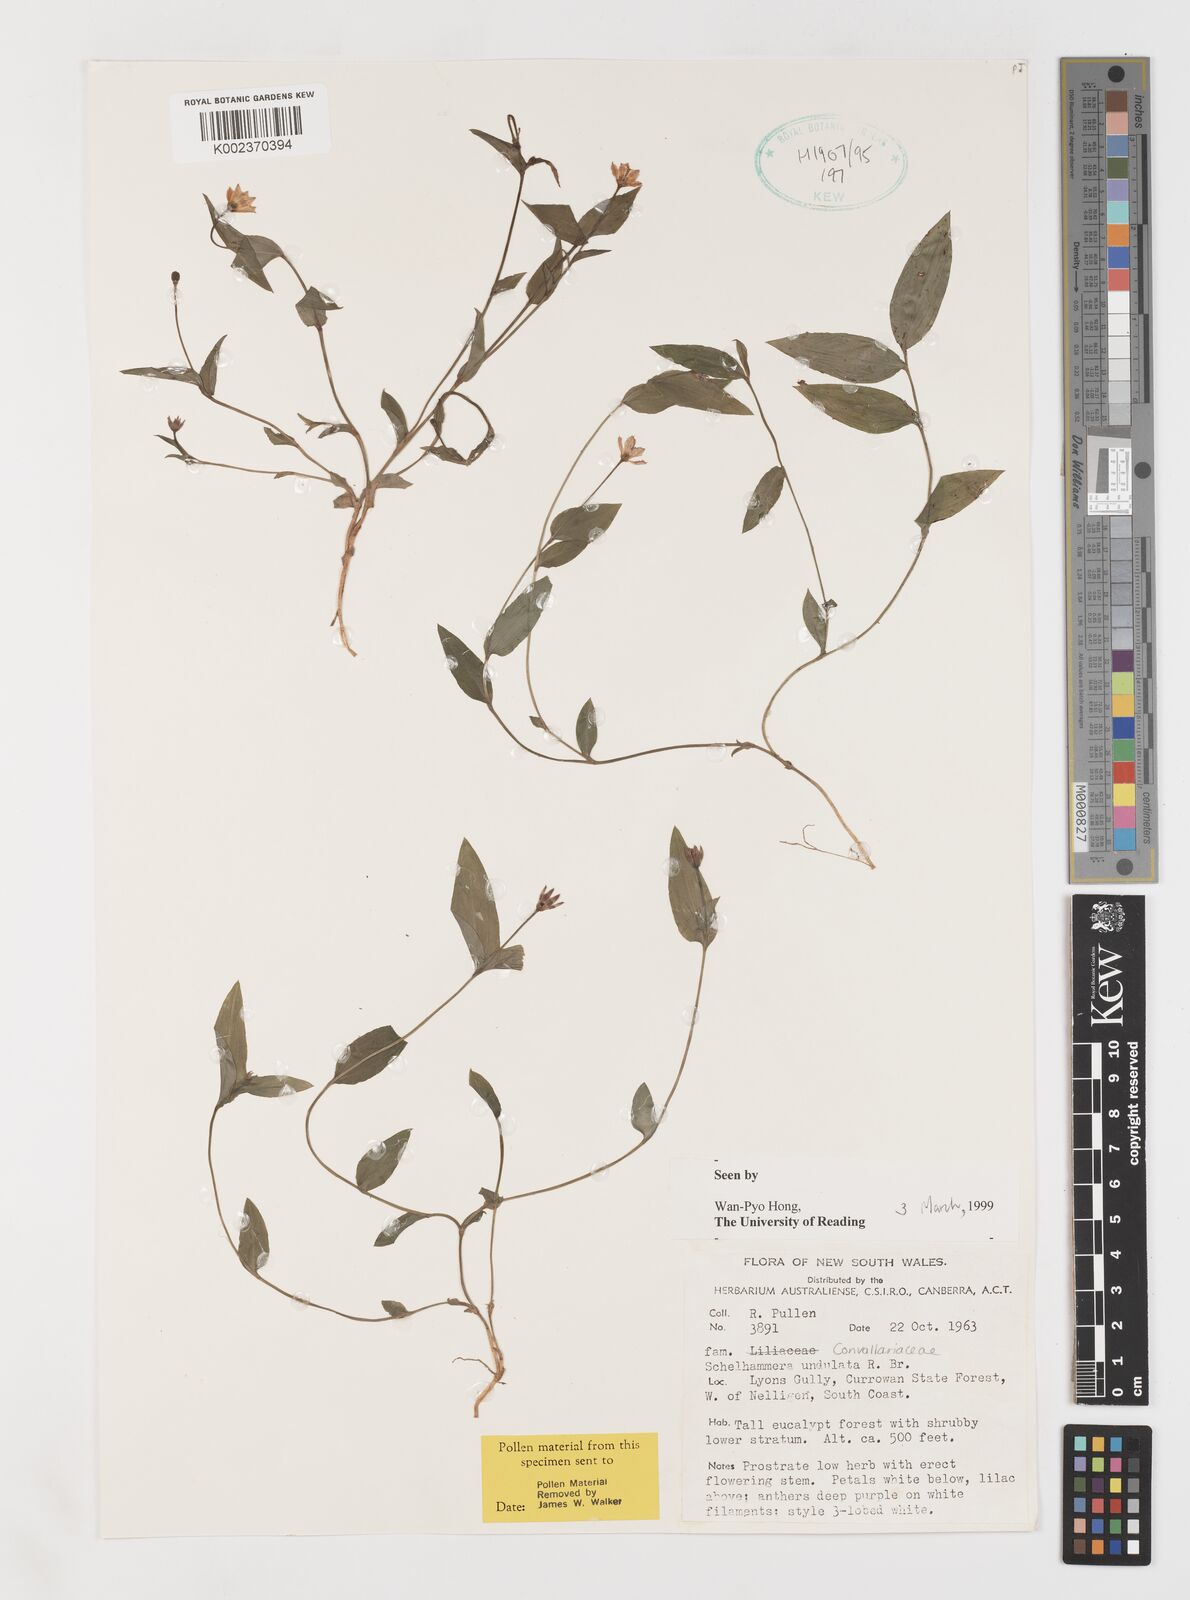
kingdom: Plantae
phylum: Tracheophyta
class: Liliopsida
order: Liliales
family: Colchicaceae
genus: Schelhammera
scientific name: Schelhammera undulata
